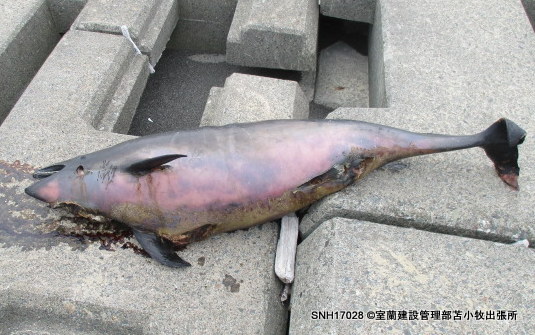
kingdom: Animalia
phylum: Chordata
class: Mammalia
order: Cetacea
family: Phocoenidae
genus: Phocoena
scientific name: Phocoena phocoena
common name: Harbour porpoise
